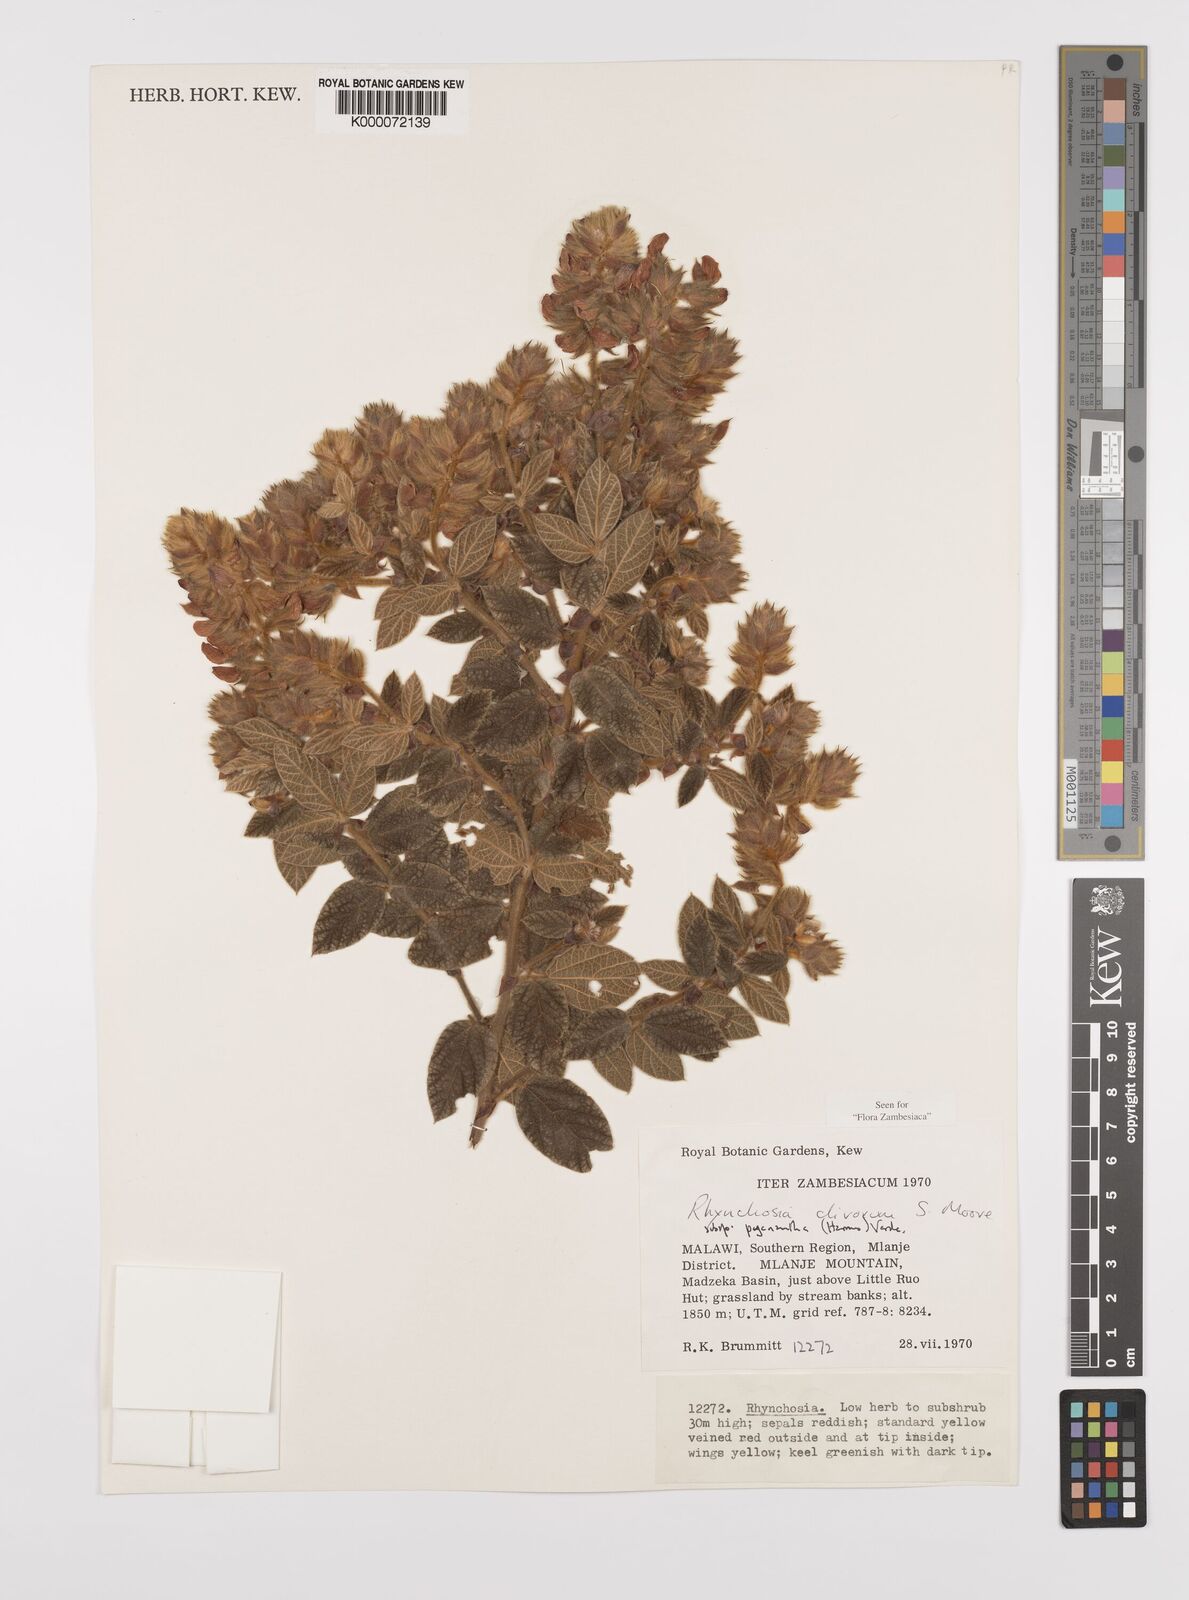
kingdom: Plantae
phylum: Tracheophyta
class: Magnoliopsida
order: Fabales
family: Fabaceae
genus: Rhynchosia
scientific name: Rhynchosia clivorum
